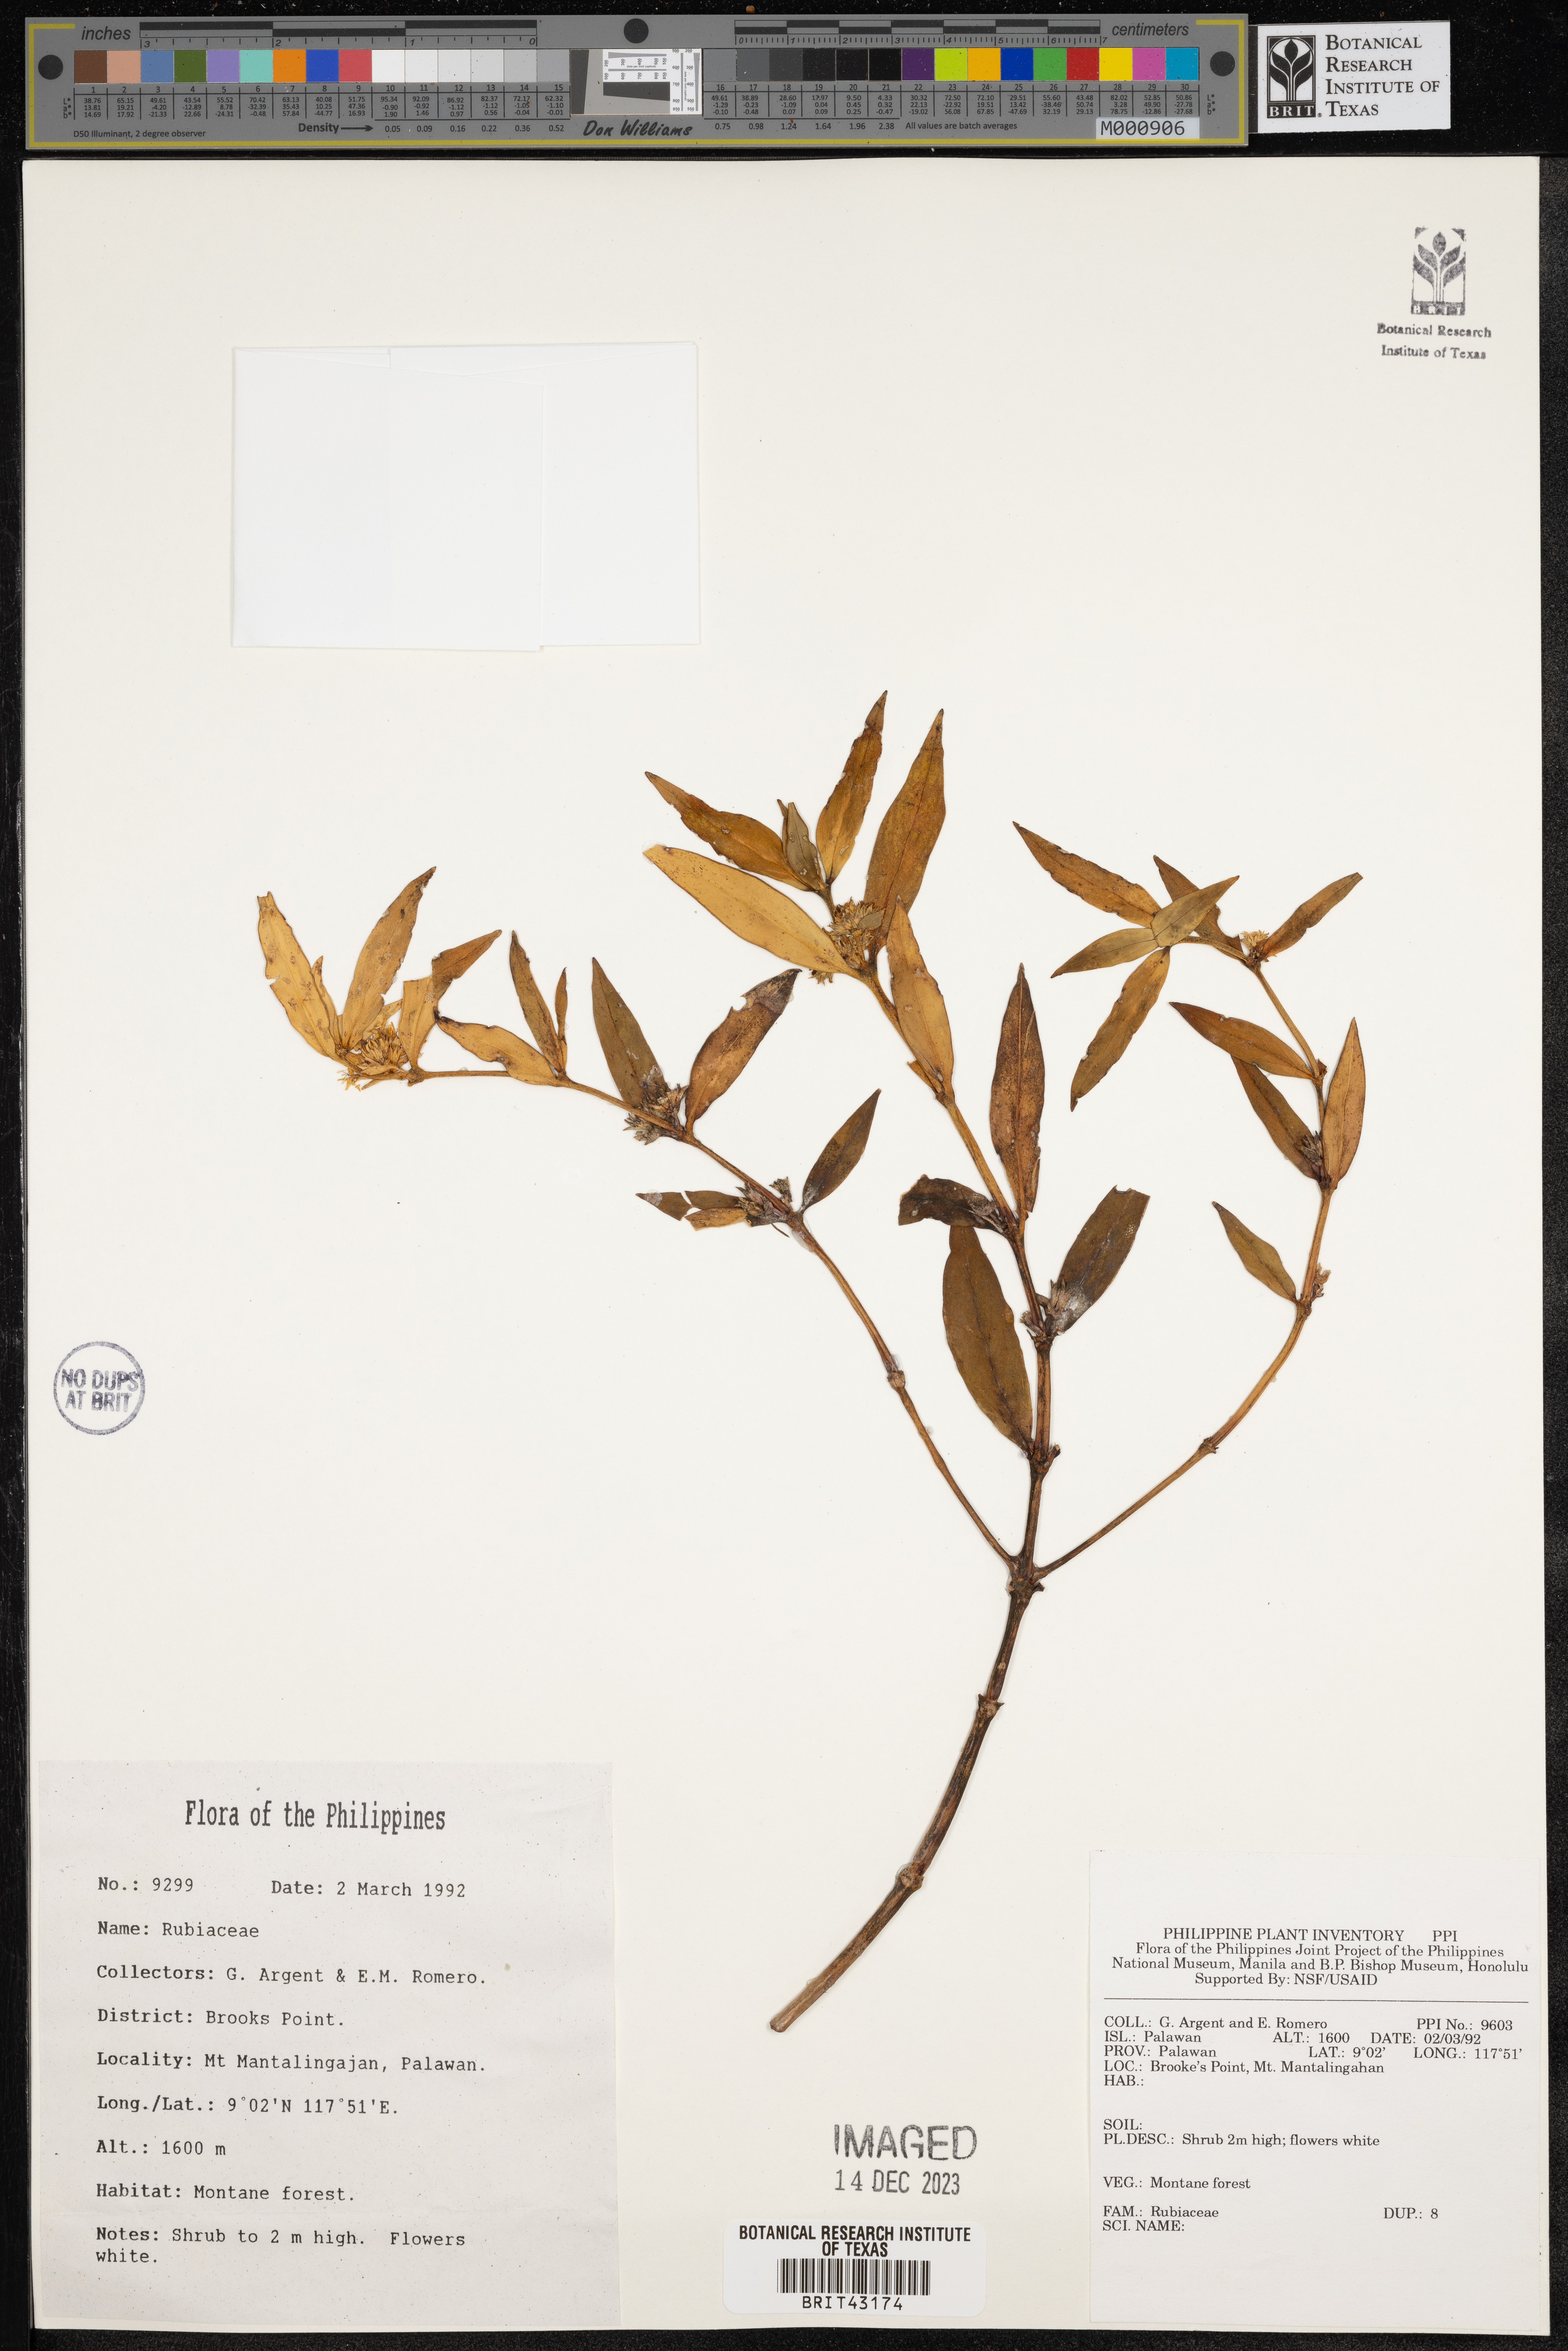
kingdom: Plantae
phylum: Tracheophyta
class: Magnoliopsida
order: Gentianales
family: Rubiaceae
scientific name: Rubiaceae
